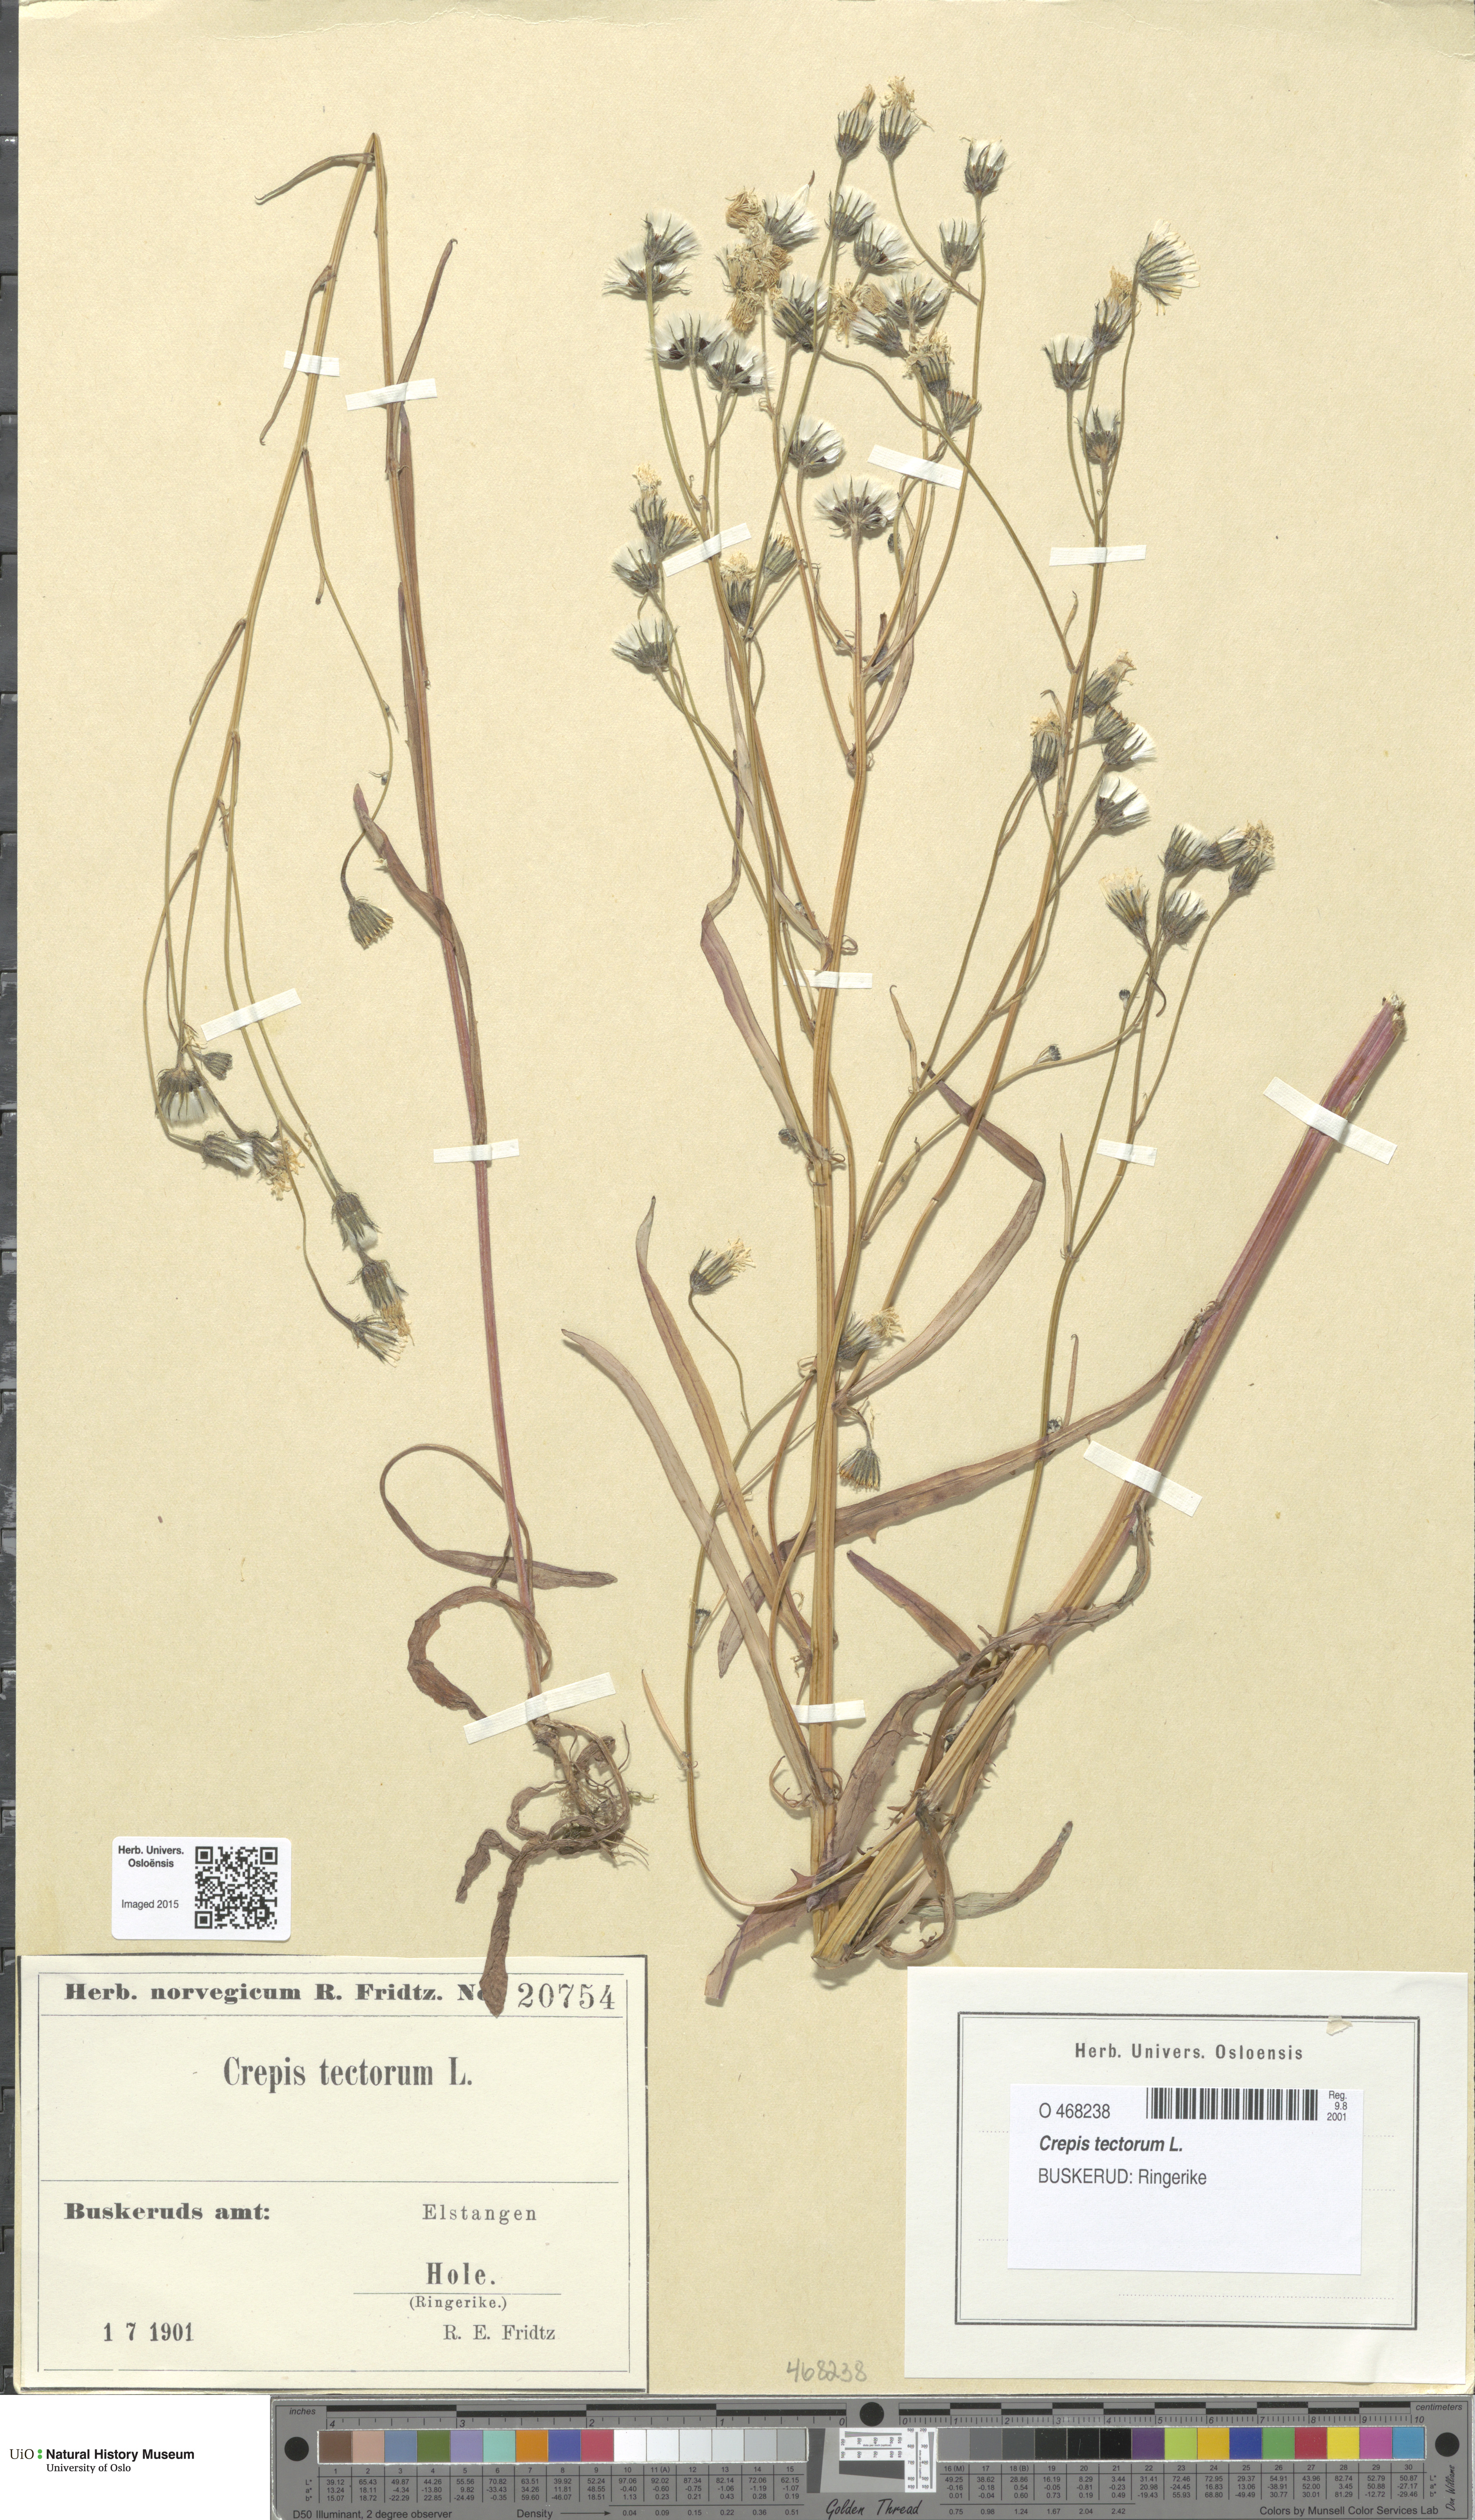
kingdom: Plantae
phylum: Tracheophyta
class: Magnoliopsida
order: Asterales
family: Asteraceae
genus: Crepis
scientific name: Crepis tectorum
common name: Narrow-leaved hawk's-beard
